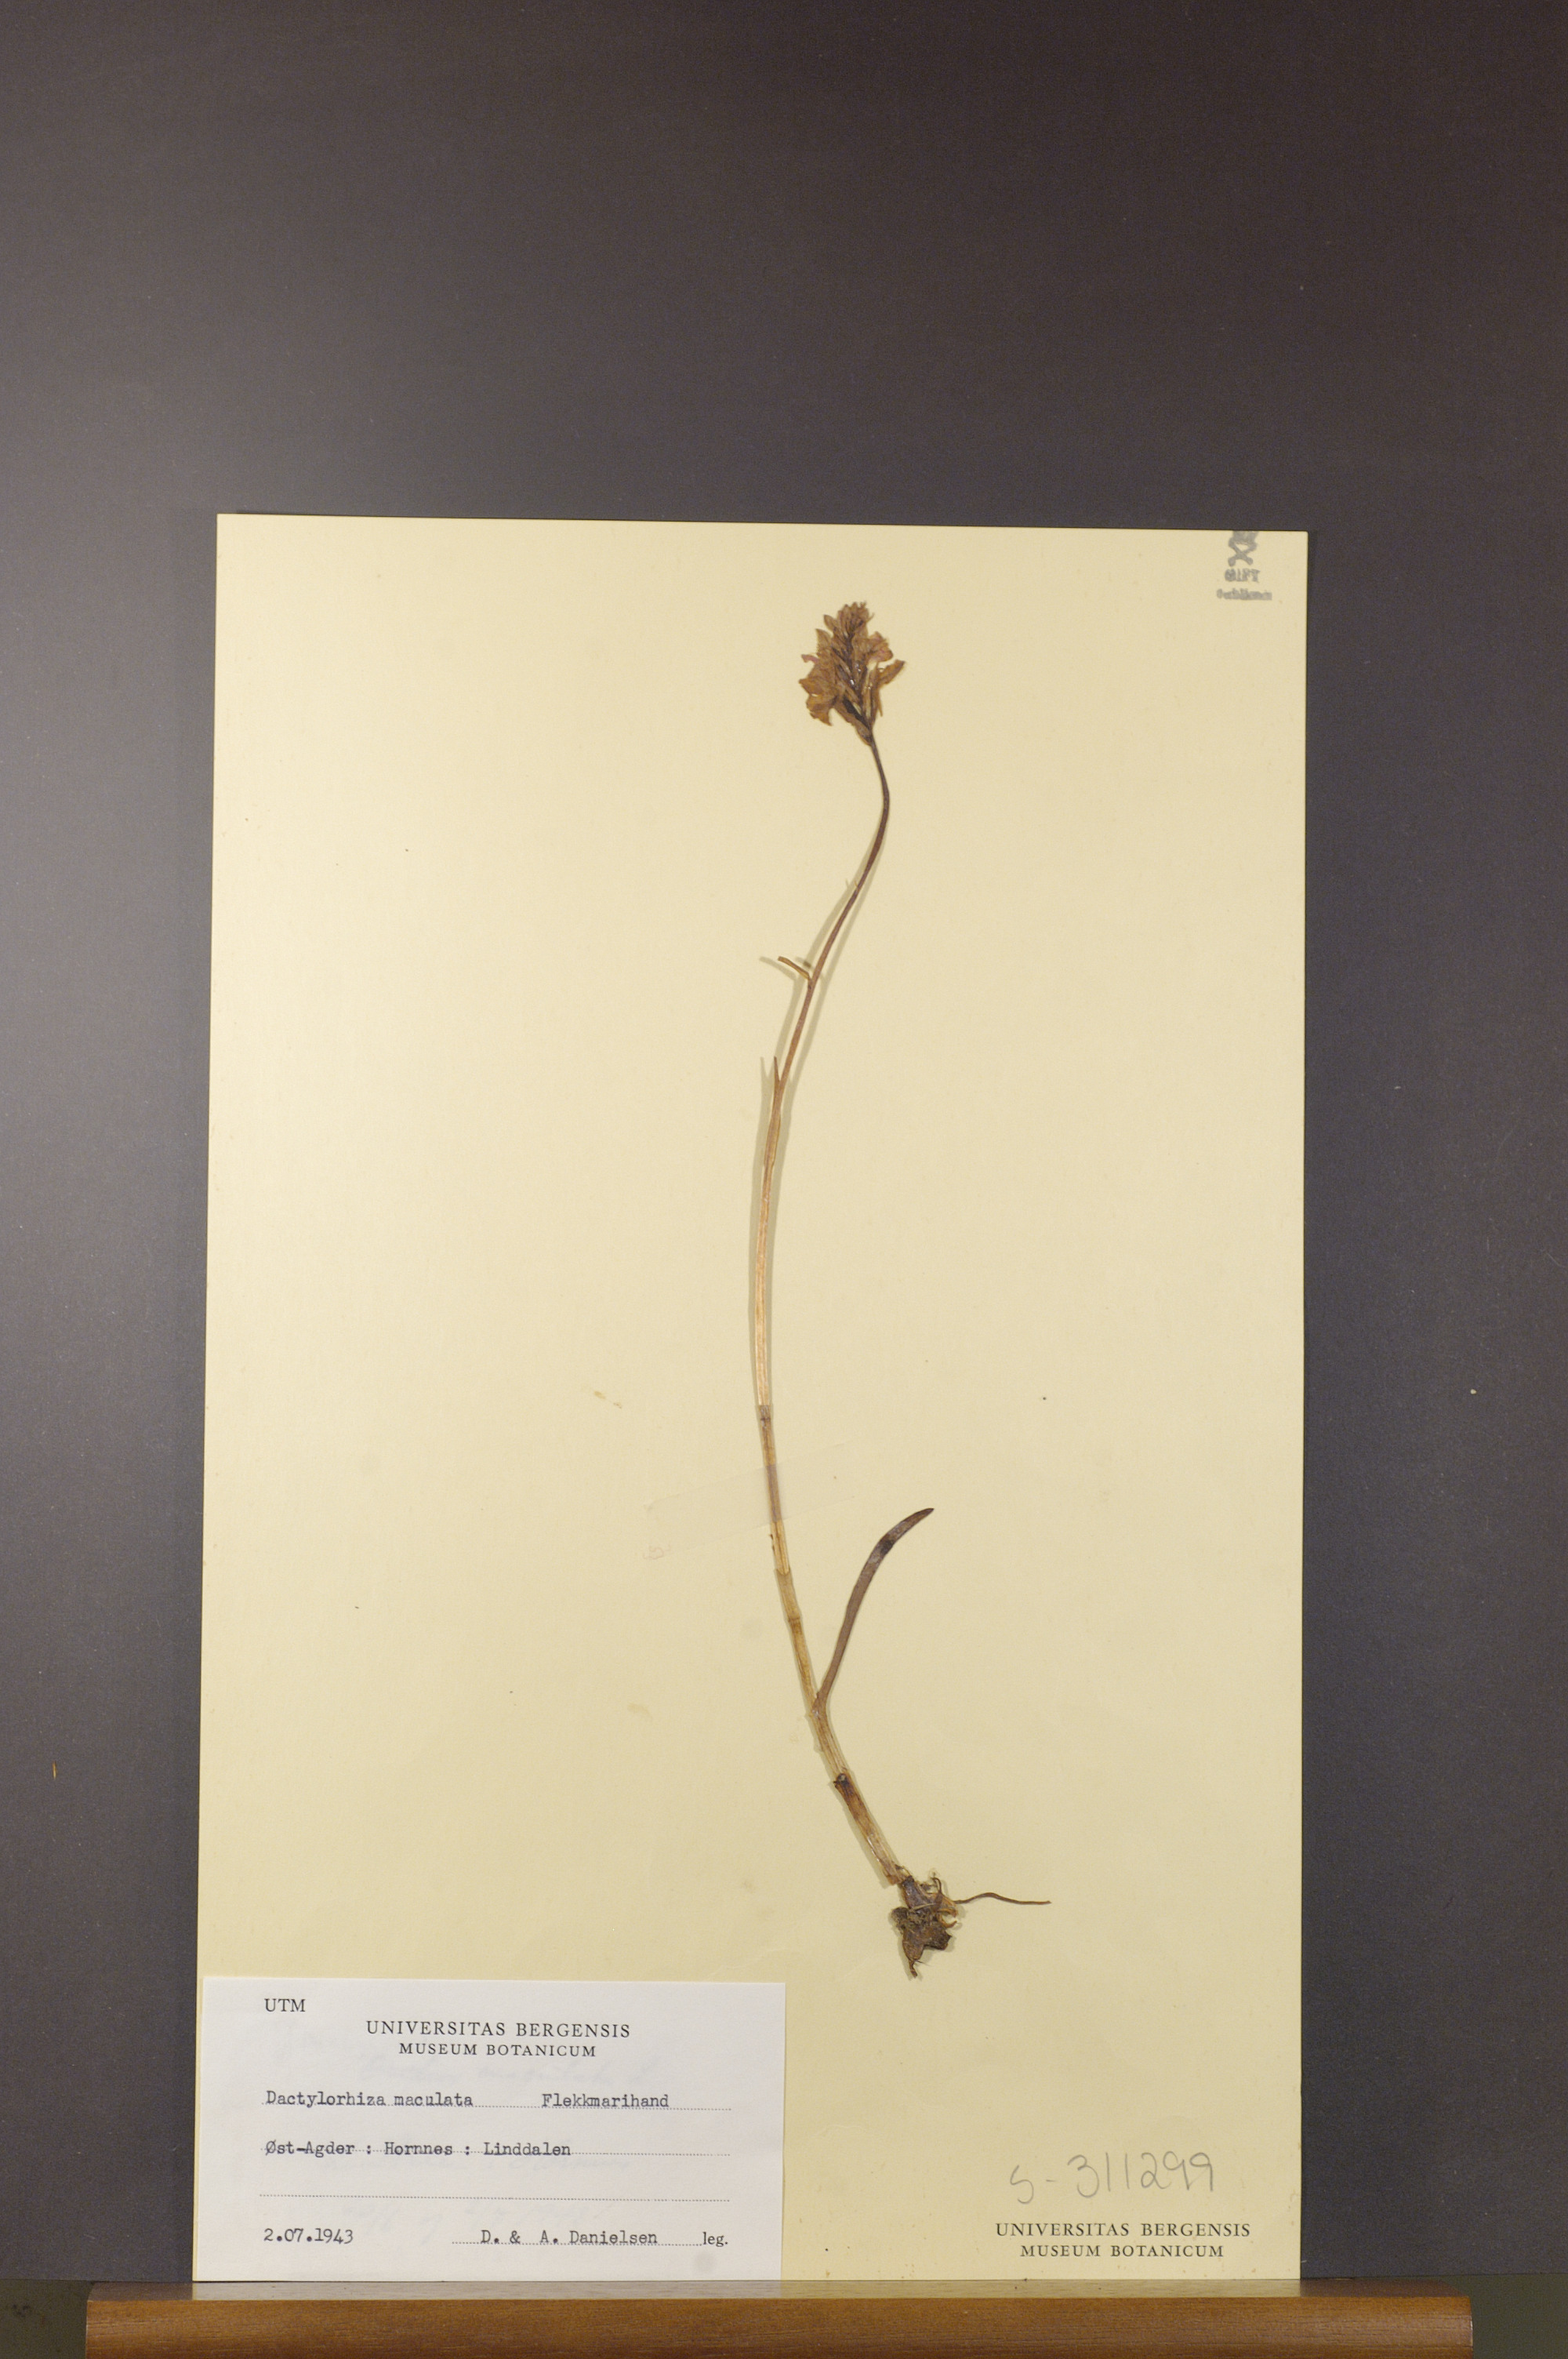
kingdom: Plantae
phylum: Tracheophyta
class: Liliopsida
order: Asparagales
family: Orchidaceae
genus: Dactylorhiza
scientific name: Dactylorhiza maculata
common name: Heath spotted-orchid
